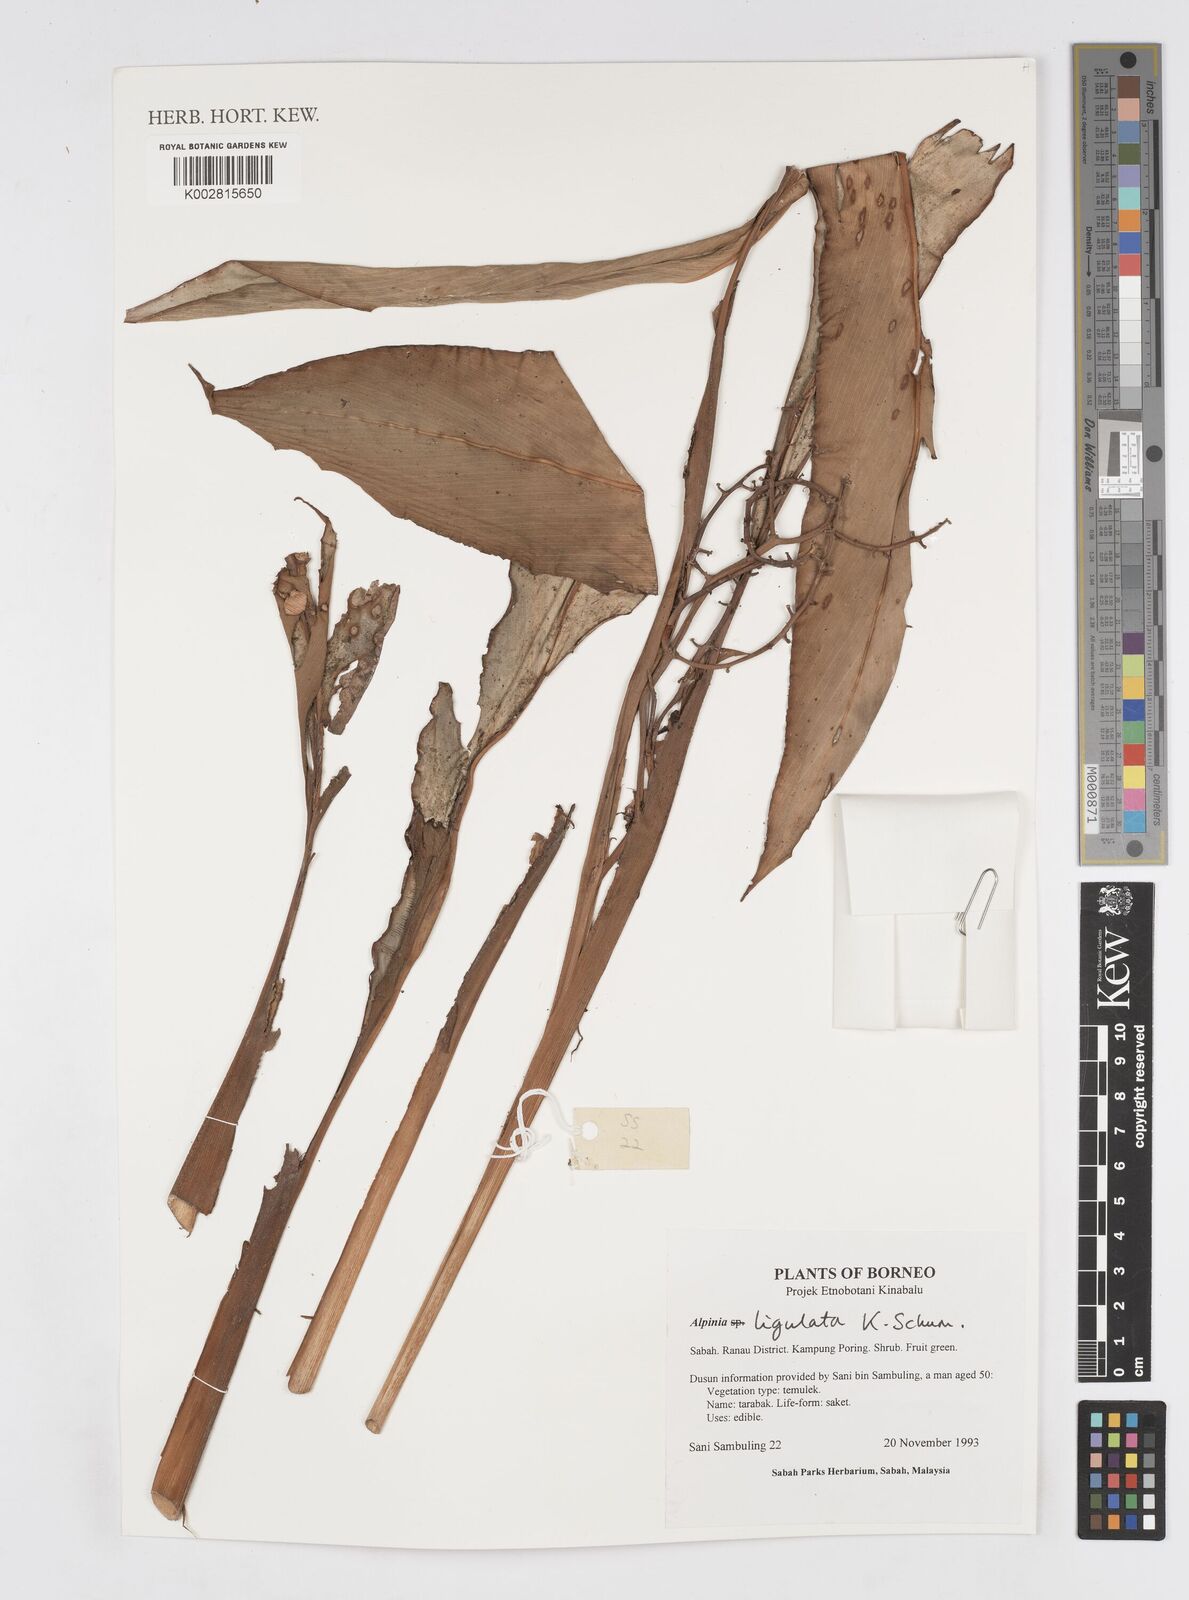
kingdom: Plantae
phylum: Tracheophyta
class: Liliopsida
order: Zingiberales
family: Zingiberaceae
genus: Alpinia
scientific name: Alpinia ligulata
